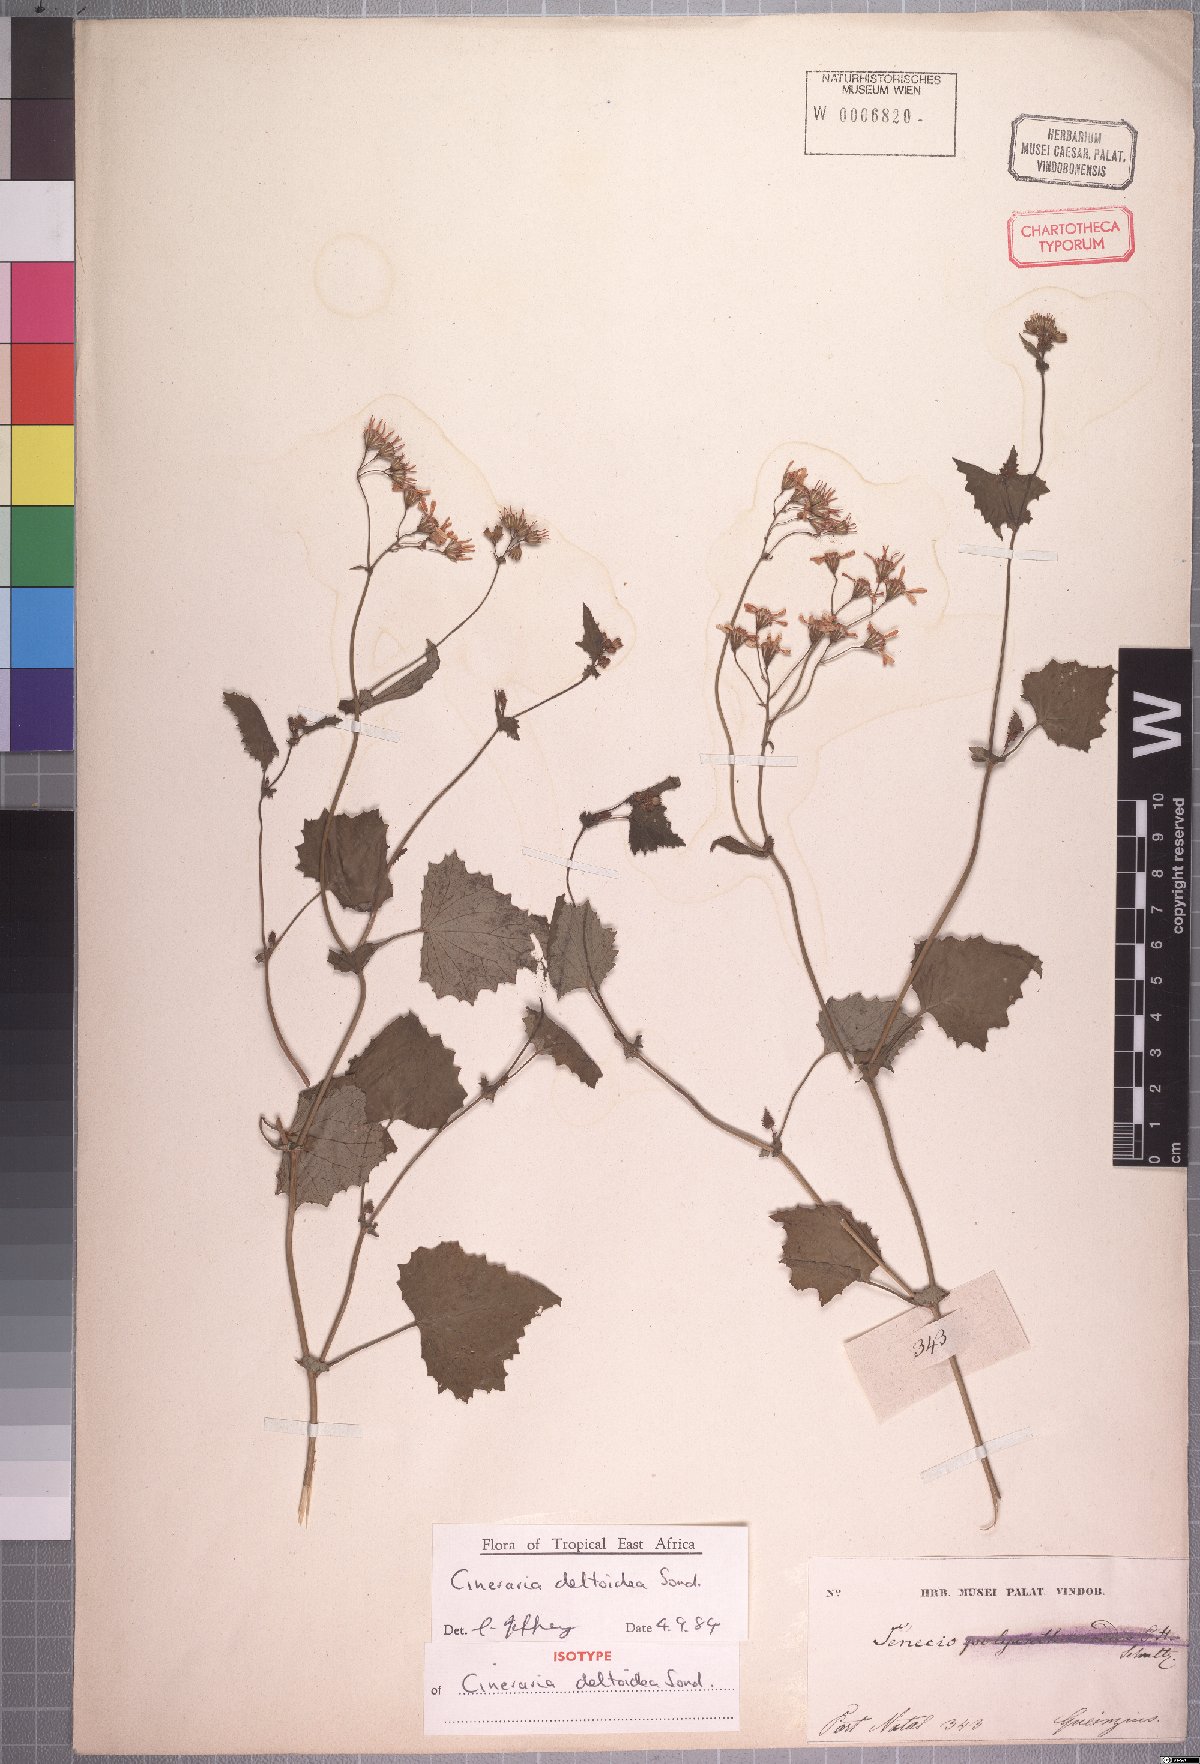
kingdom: Plantae
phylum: Tracheophyta
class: Magnoliopsida
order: Asterales
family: Asteraceae
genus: Cineraria
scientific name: Cineraria deltoidea
